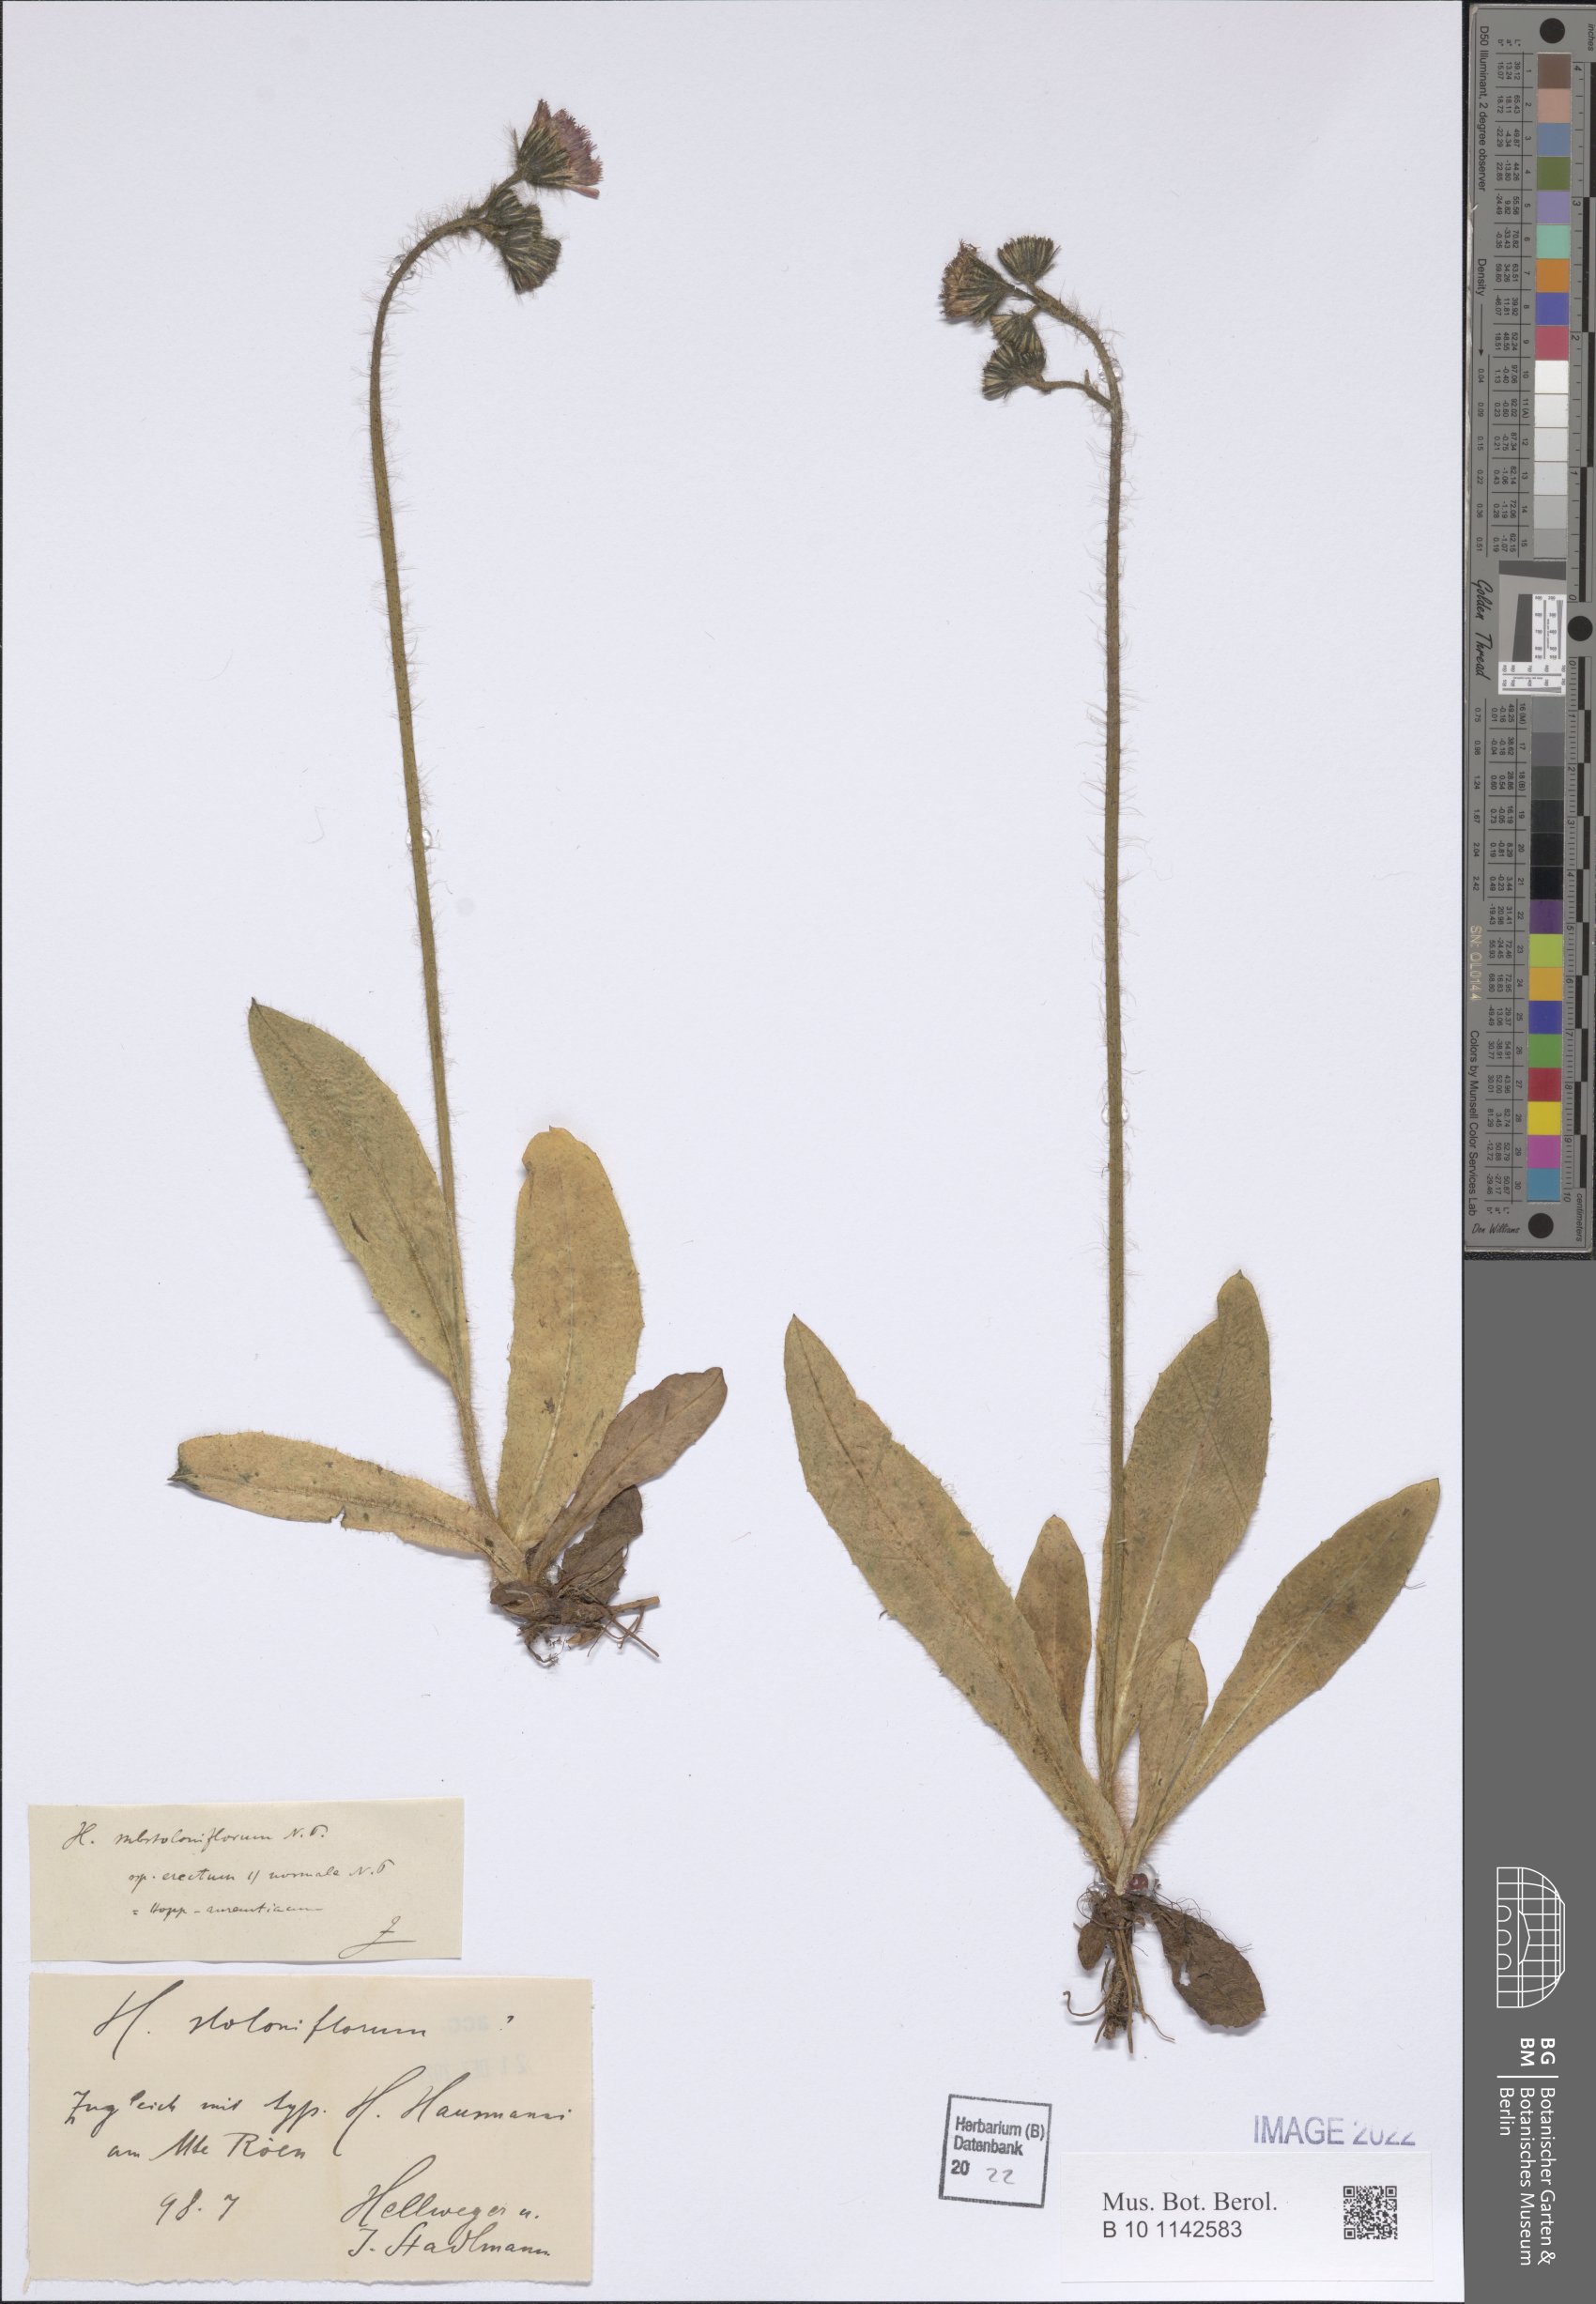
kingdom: Plantae
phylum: Tracheophyta
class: Magnoliopsida
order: Asterales
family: Asteraceae
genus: Pilosella
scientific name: Pilosella aurantiaca
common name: Fox-and-cubs
